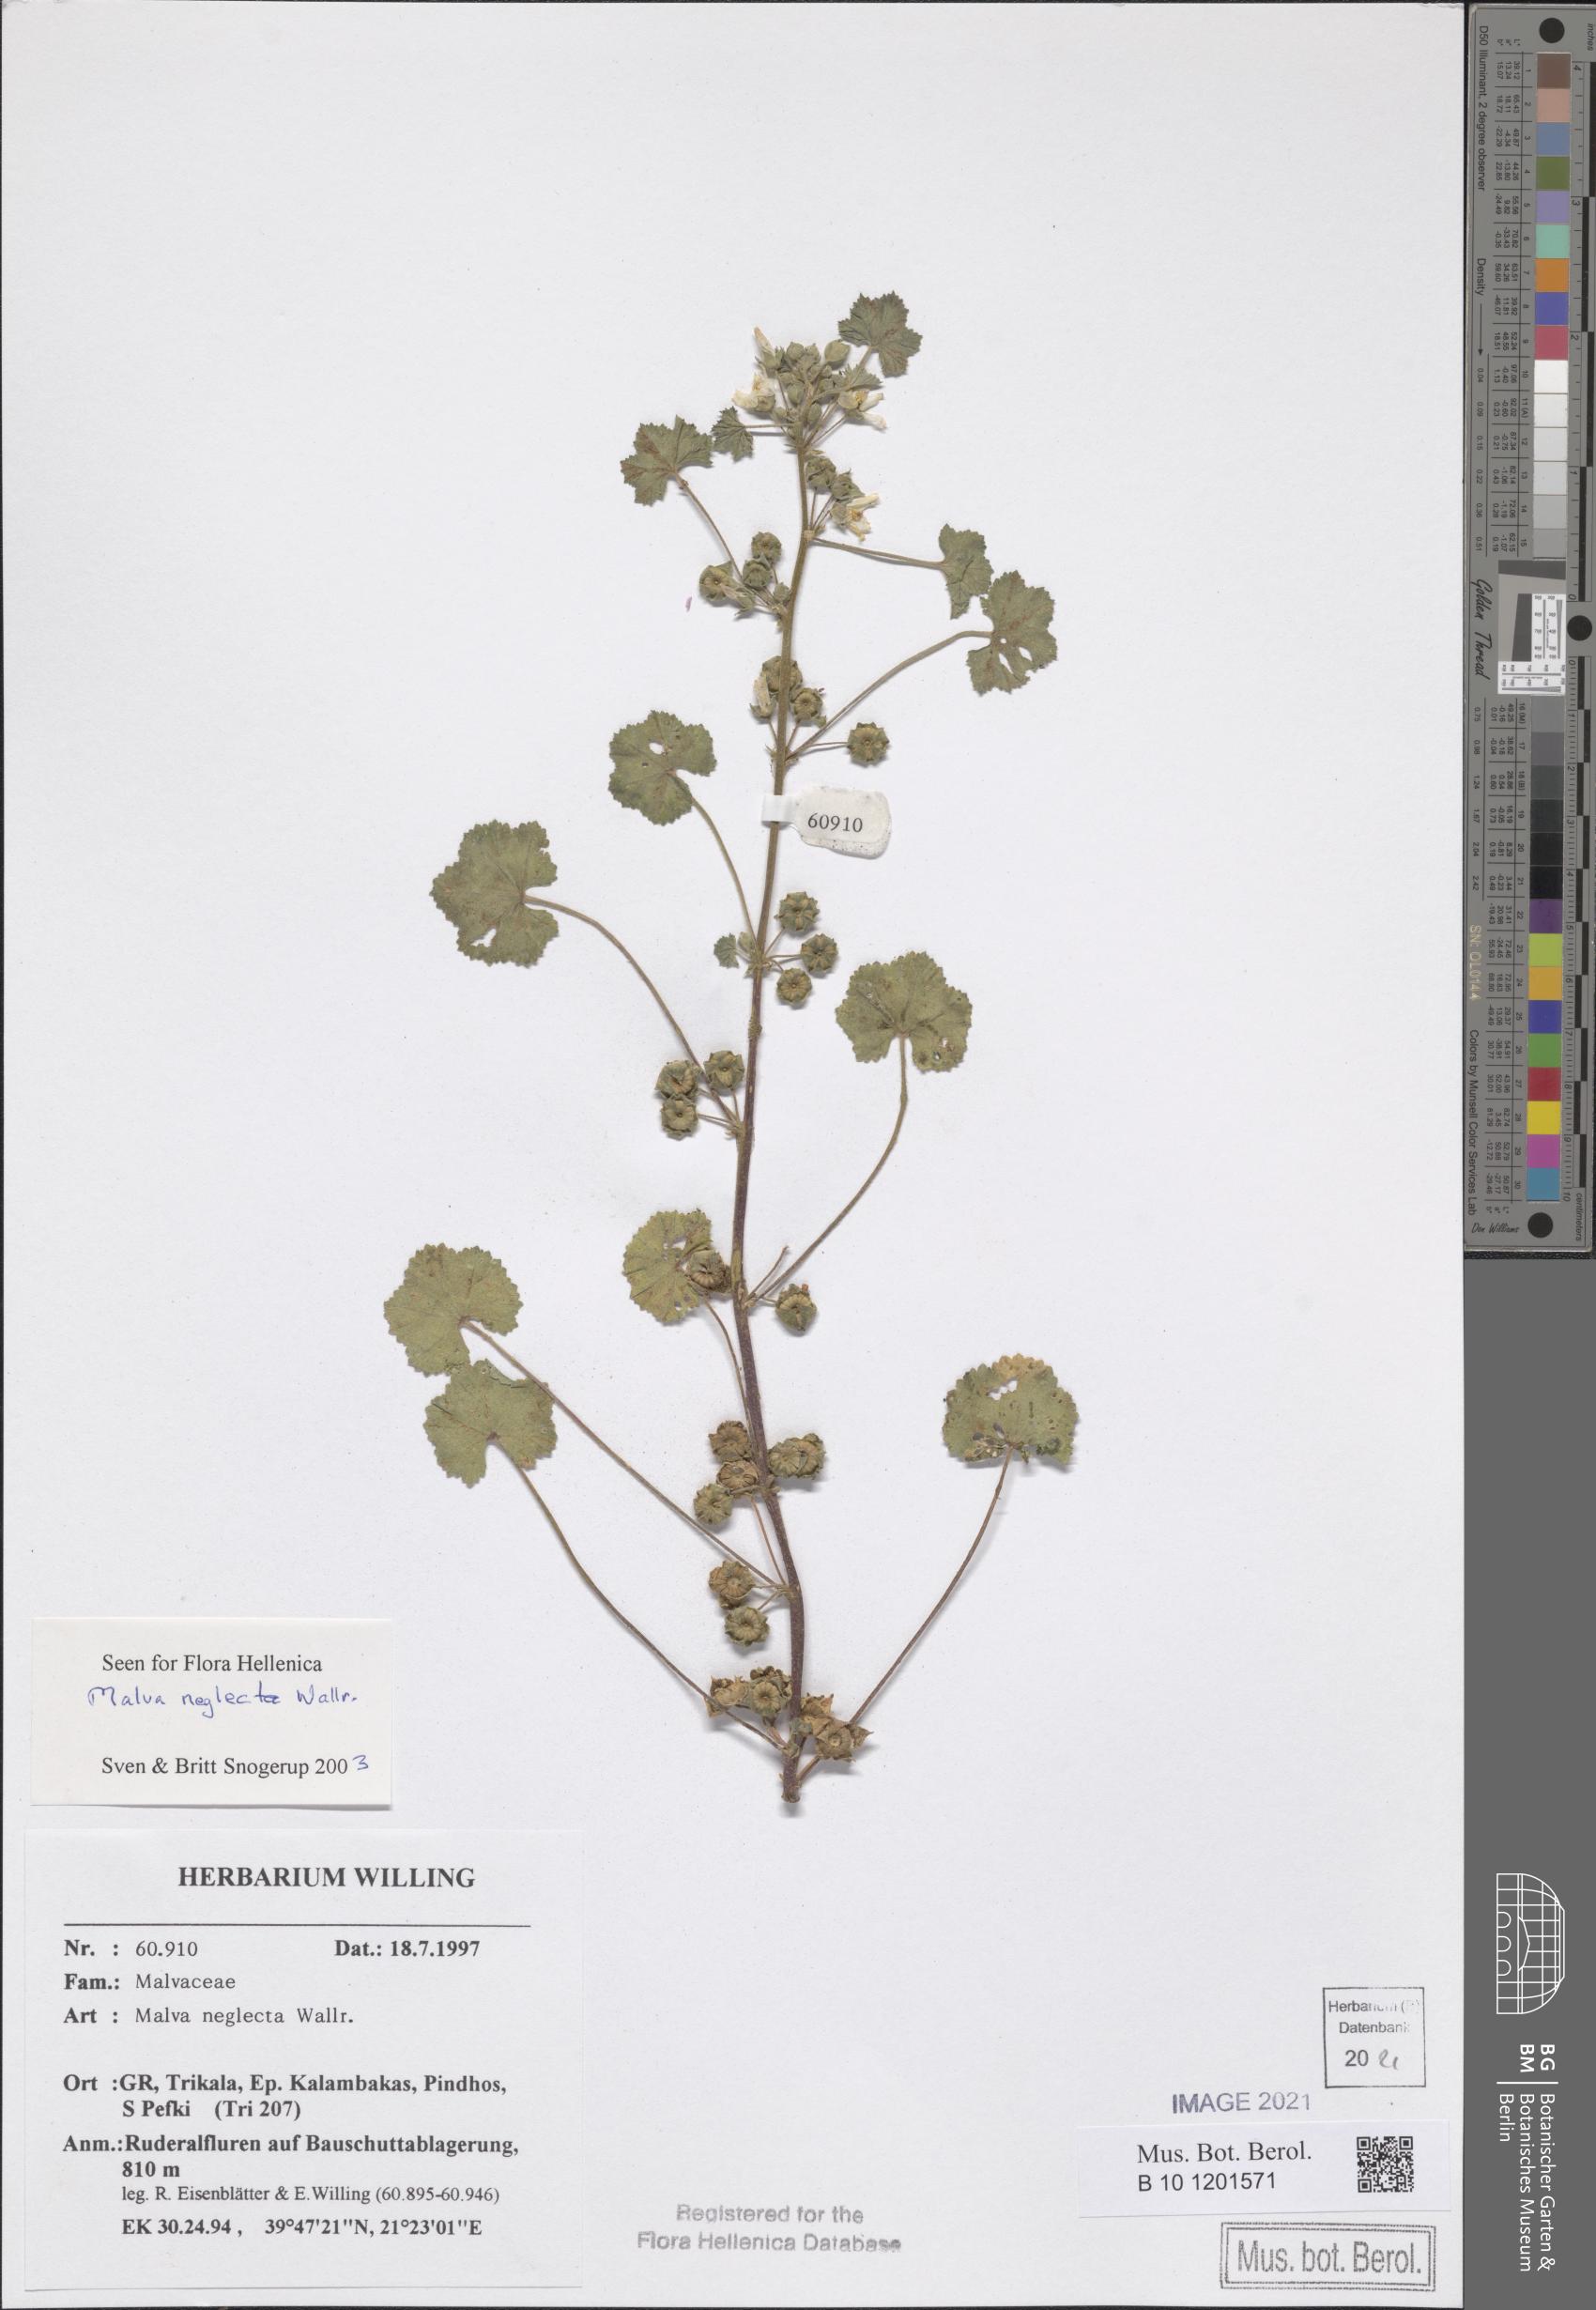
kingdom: Plantae
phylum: Tracheophyta
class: Magnoliopsida
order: Malvales
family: Malvaceae
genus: Malva
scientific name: Malva neglecta
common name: Common mallow
